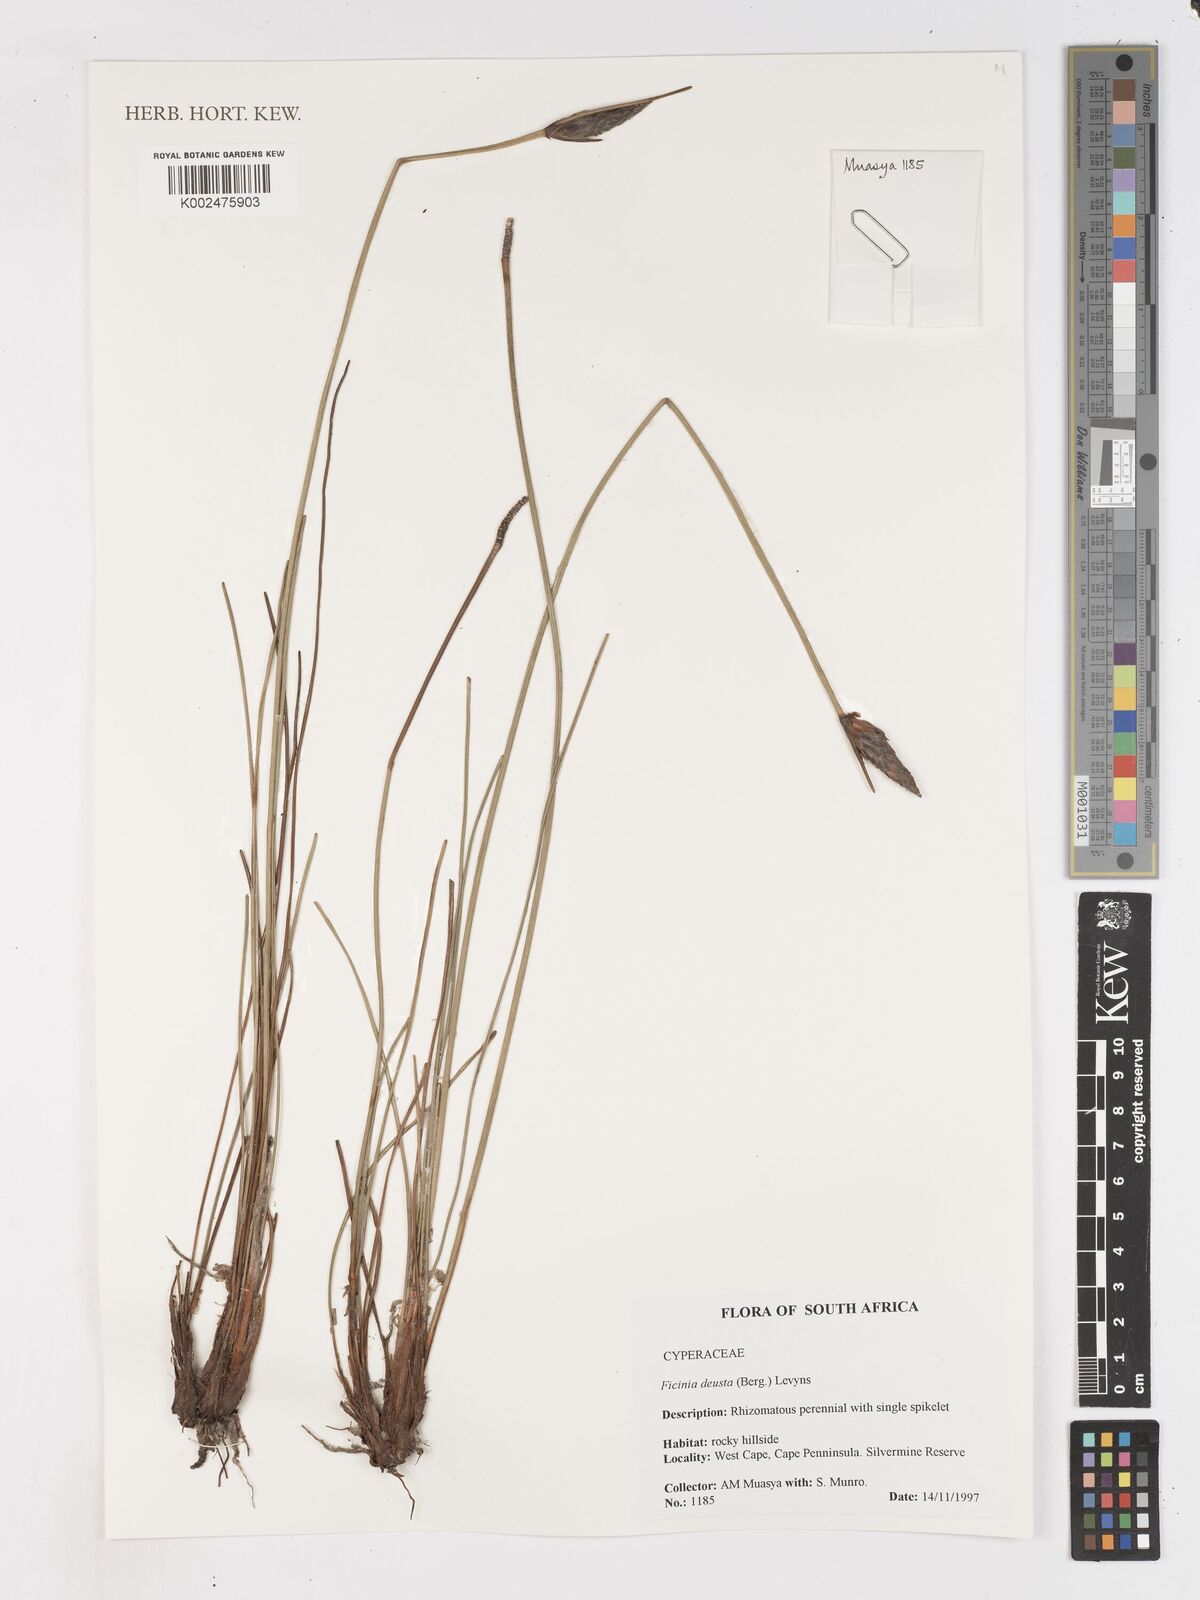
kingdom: Plantae
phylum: Tracheophyta
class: Liliopsida
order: Poales
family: Cyperaceae
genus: Ficinia
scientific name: Ficinia deusta
